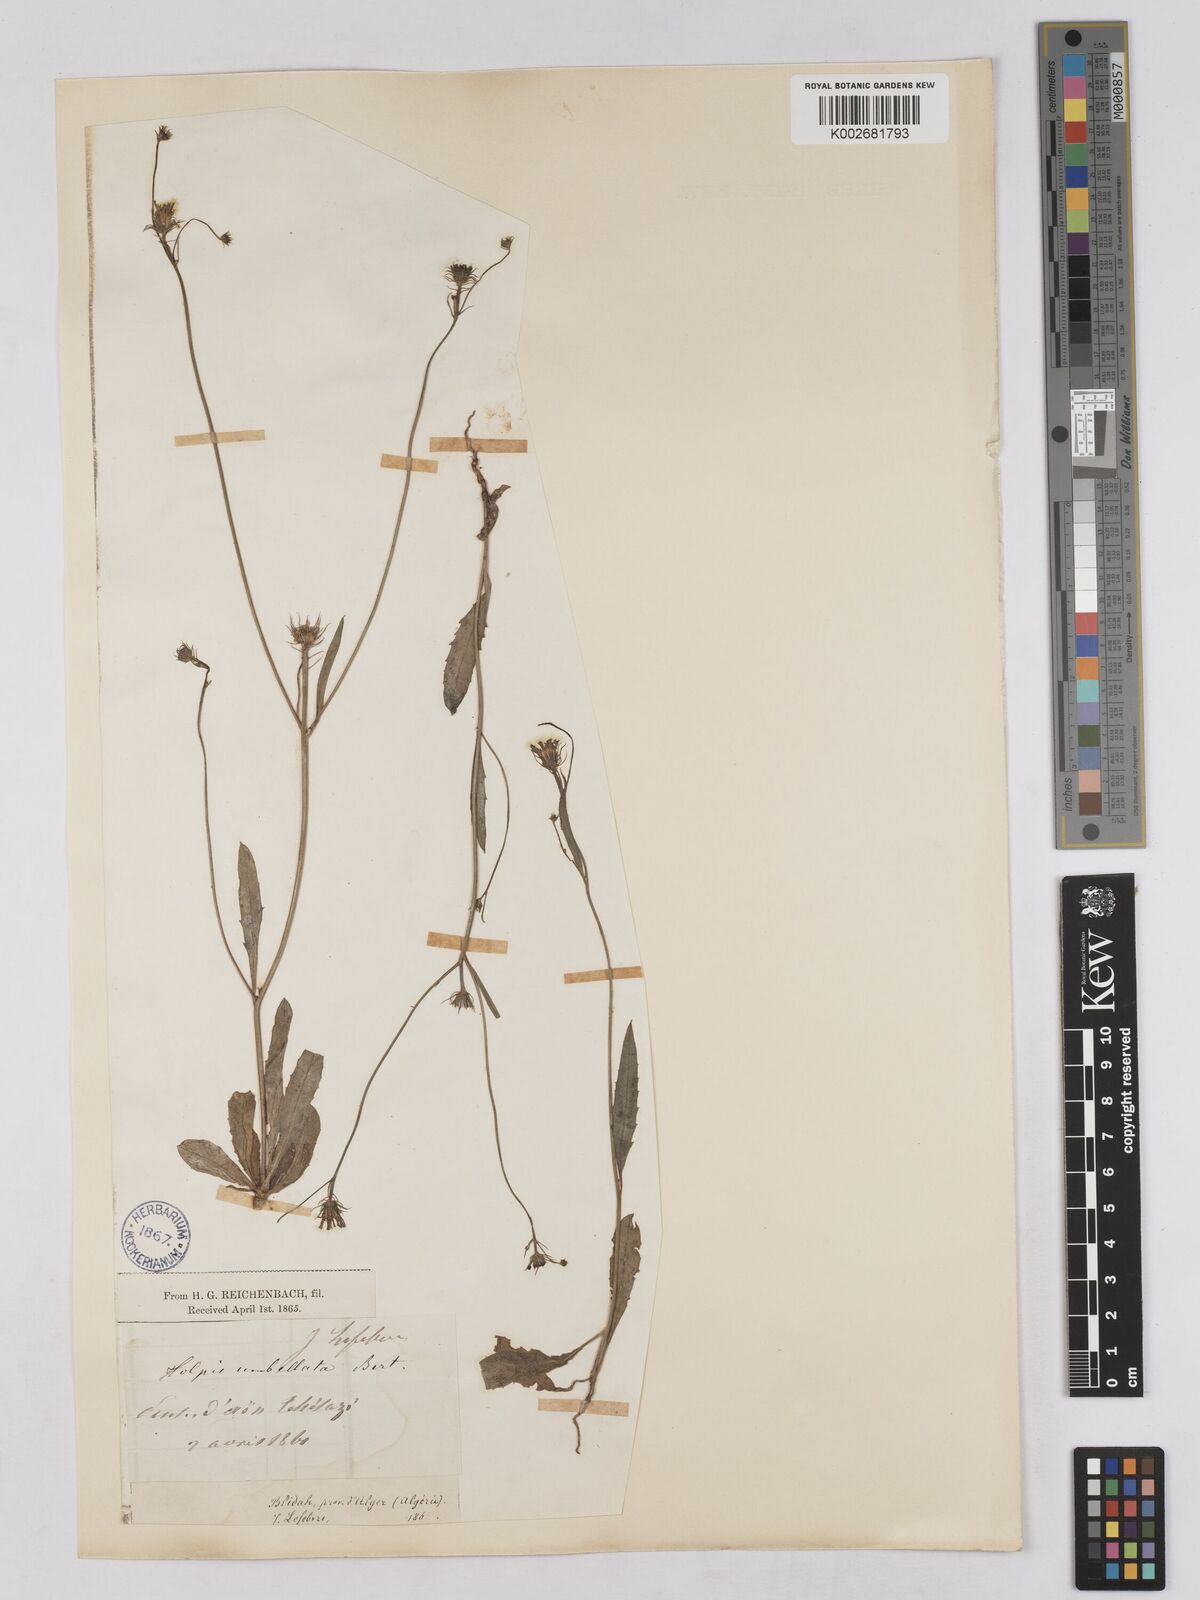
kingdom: Plantae
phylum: Tracheophyta
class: Magnoliopsida
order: Asterales
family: Asteraceae
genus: Tolpis
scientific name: Tolpis umbellata
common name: Yellow hawkweed
